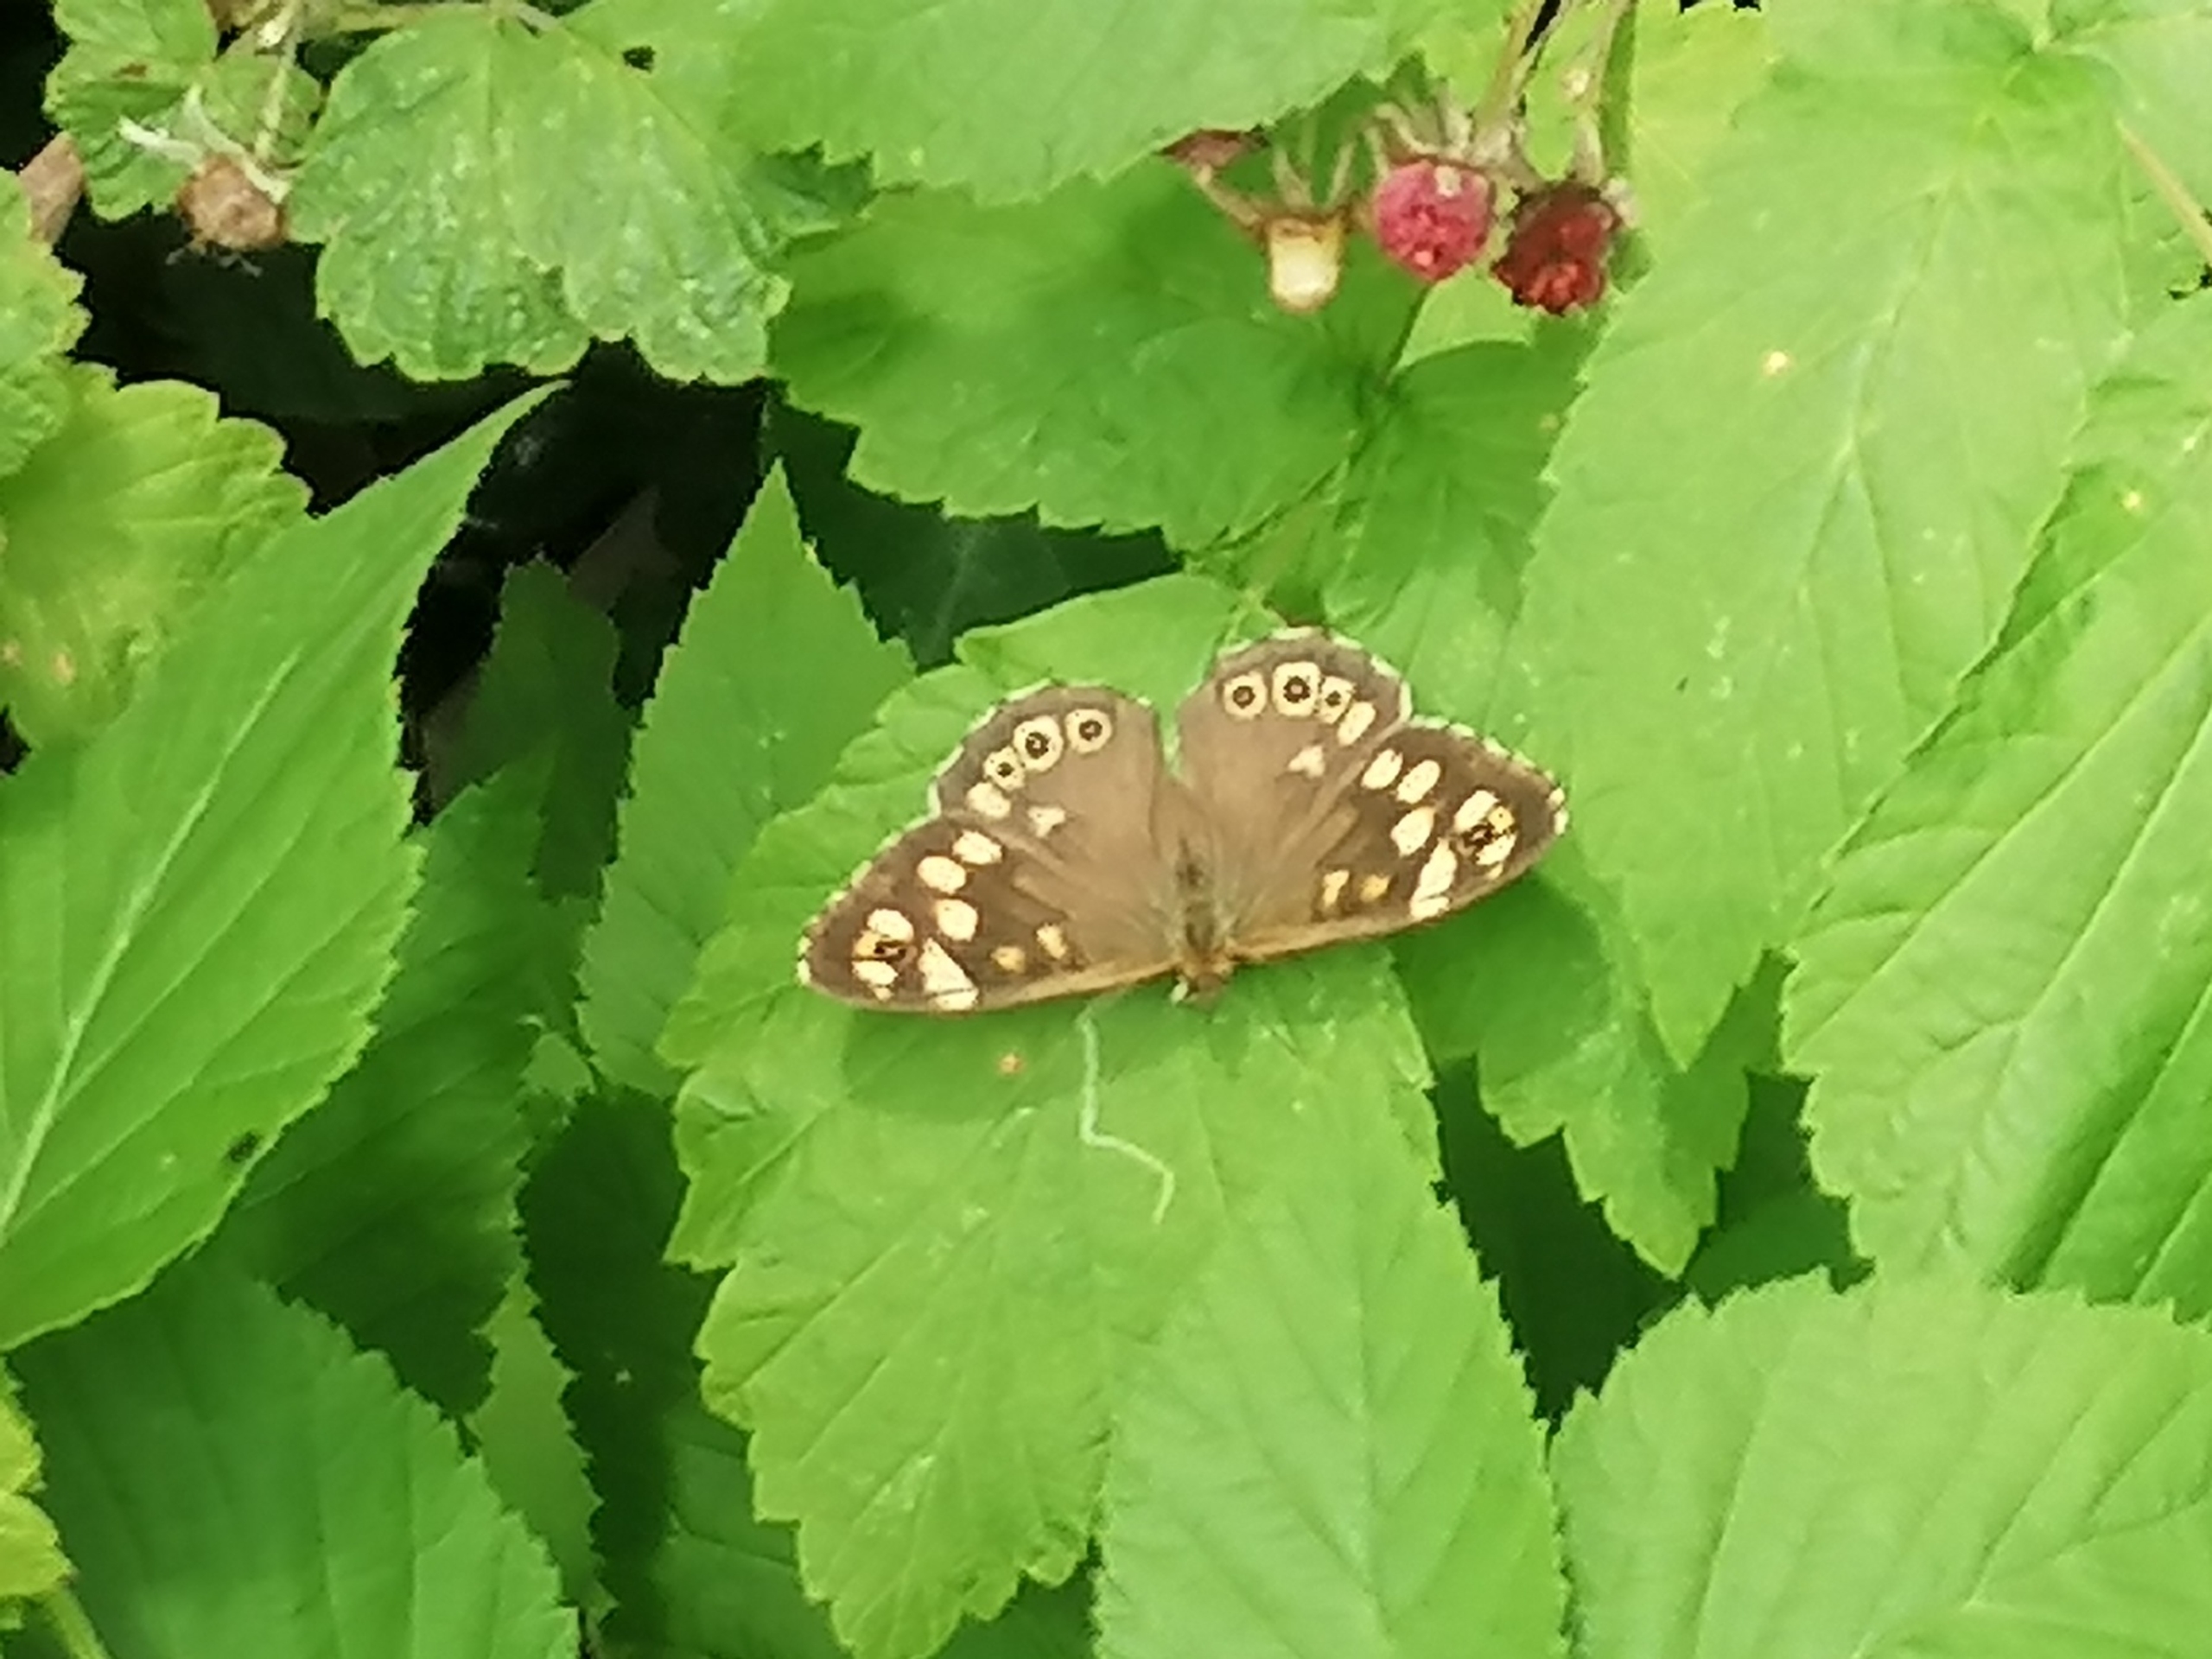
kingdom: Animalia
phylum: Arthropoda
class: Insecta
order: Lepidoptera
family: Nymphalidae
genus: Pararge
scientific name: Pararge aegeria
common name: Skovrandøje
